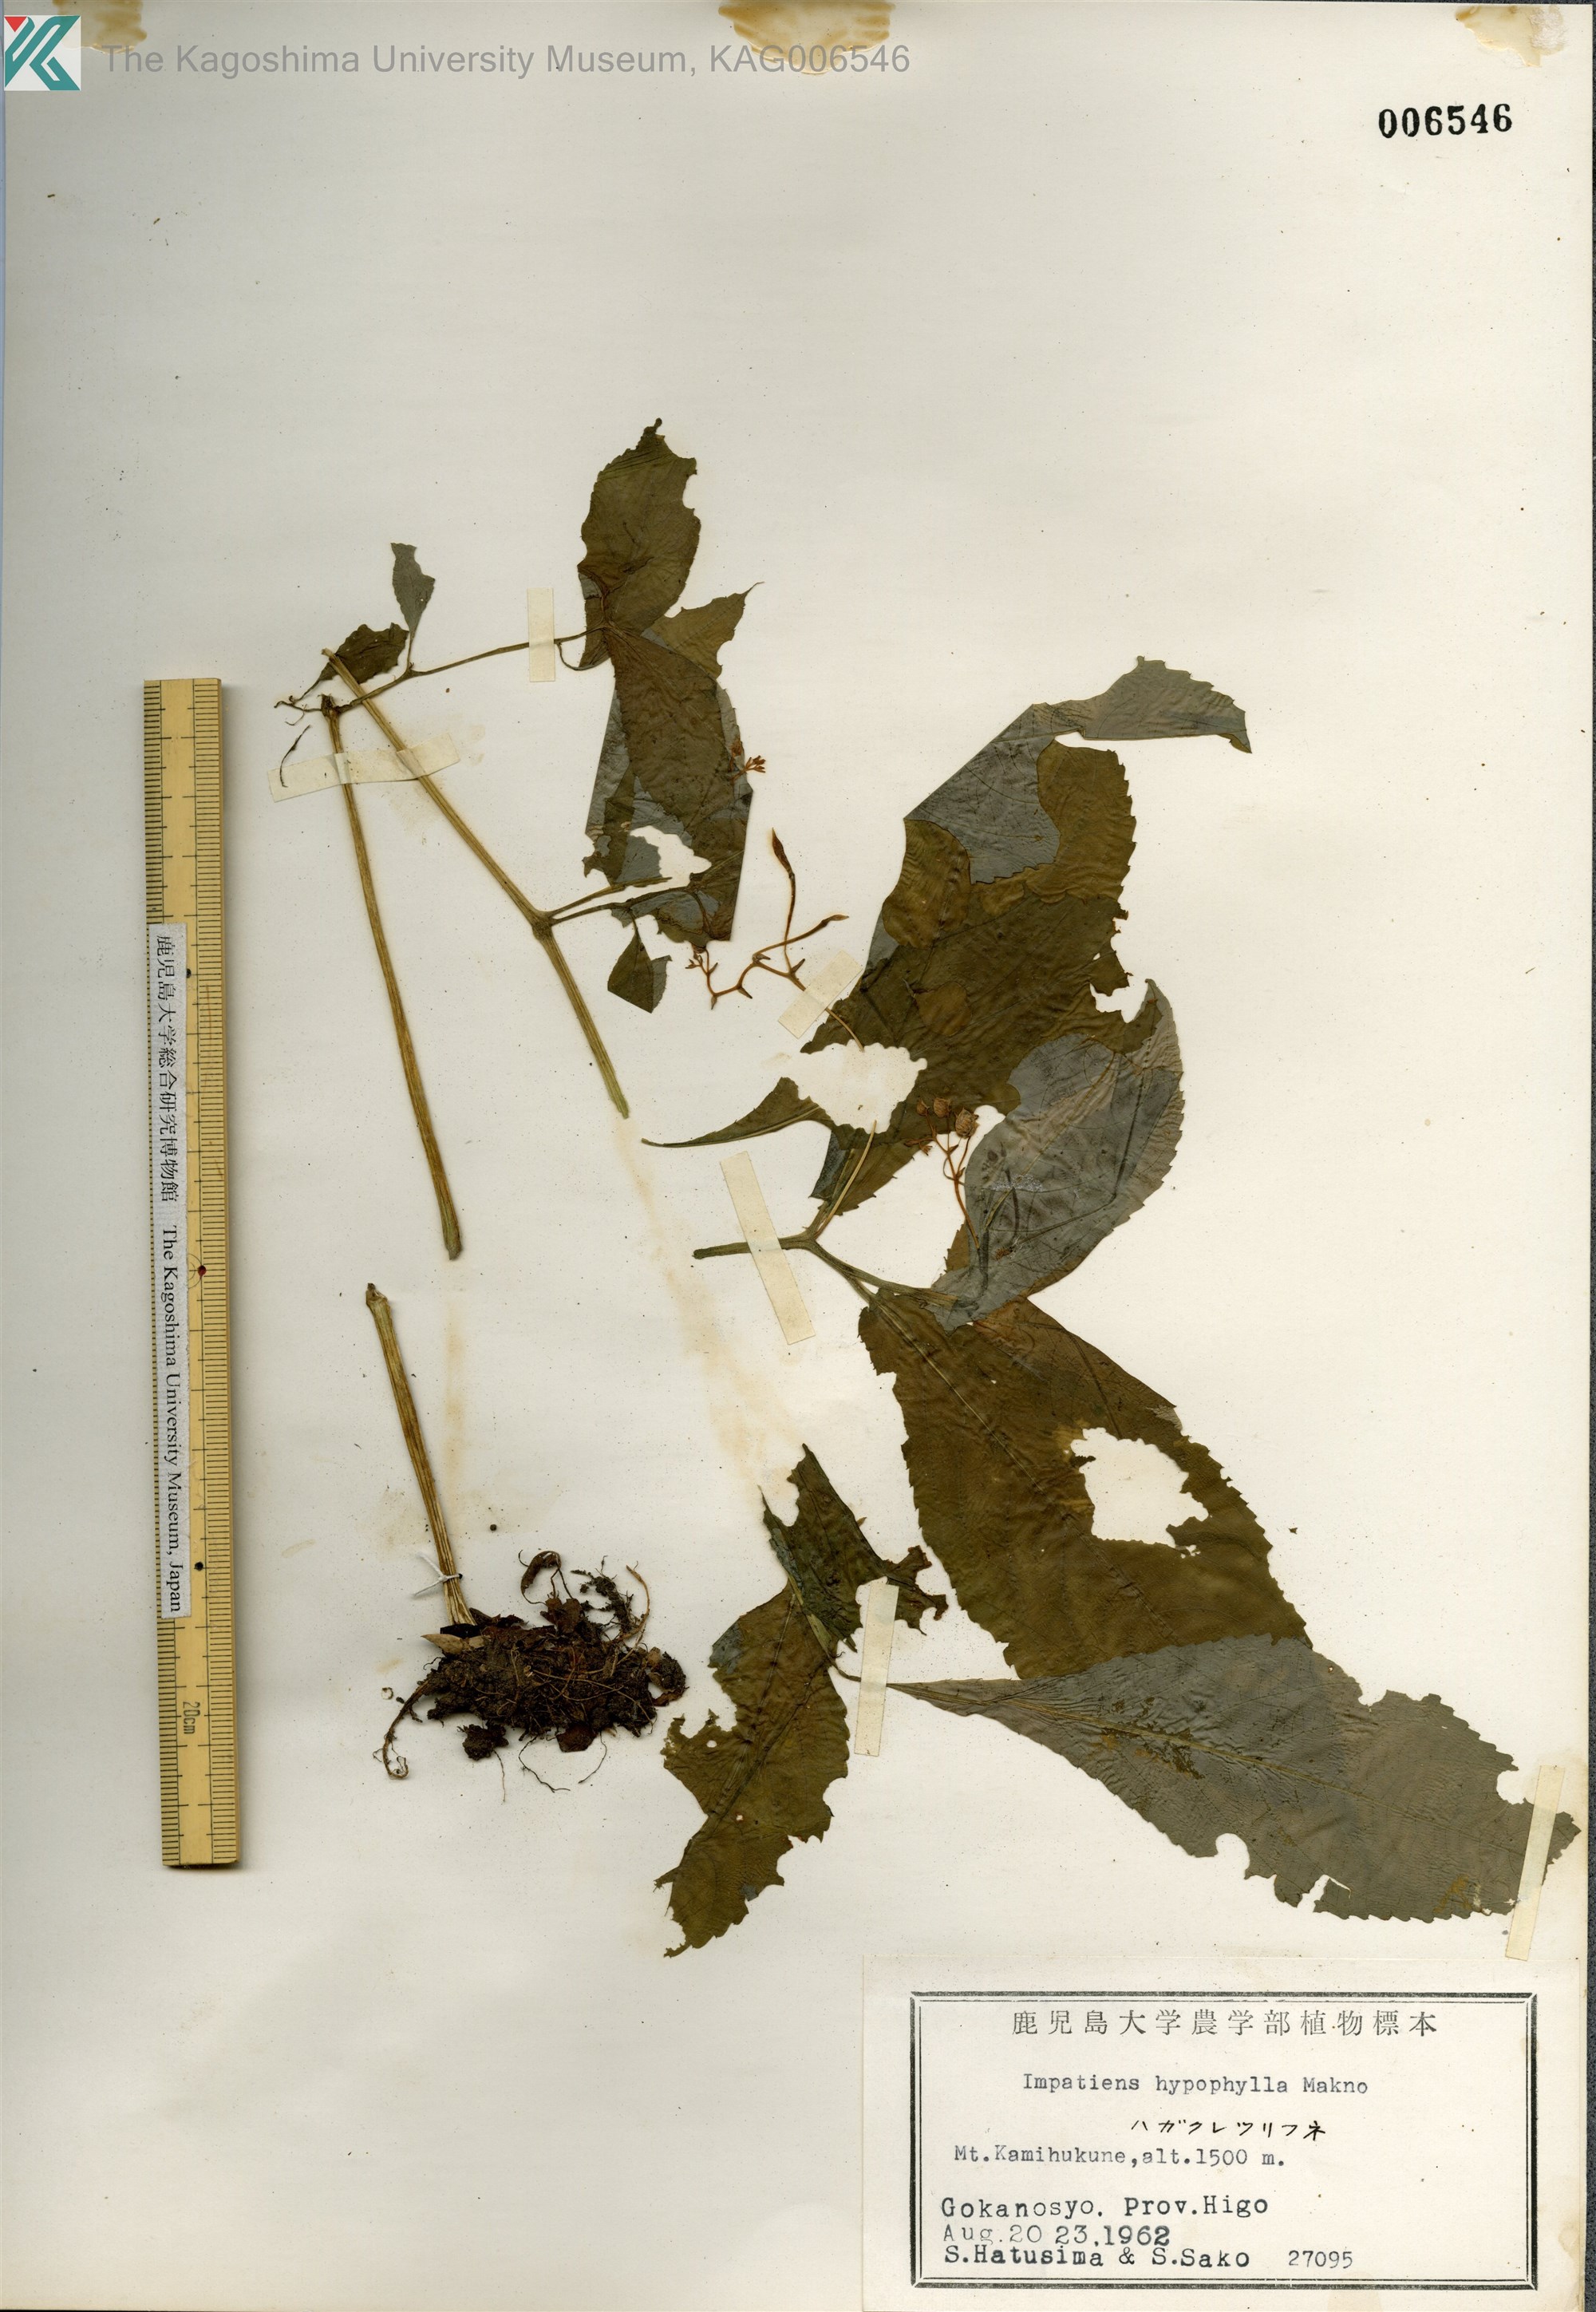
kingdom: Plantae
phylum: Tracheophyta
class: Magnoliopsida
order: Ericales
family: Balsaminaceae
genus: Impatiens
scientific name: Impatiens hypophylla
